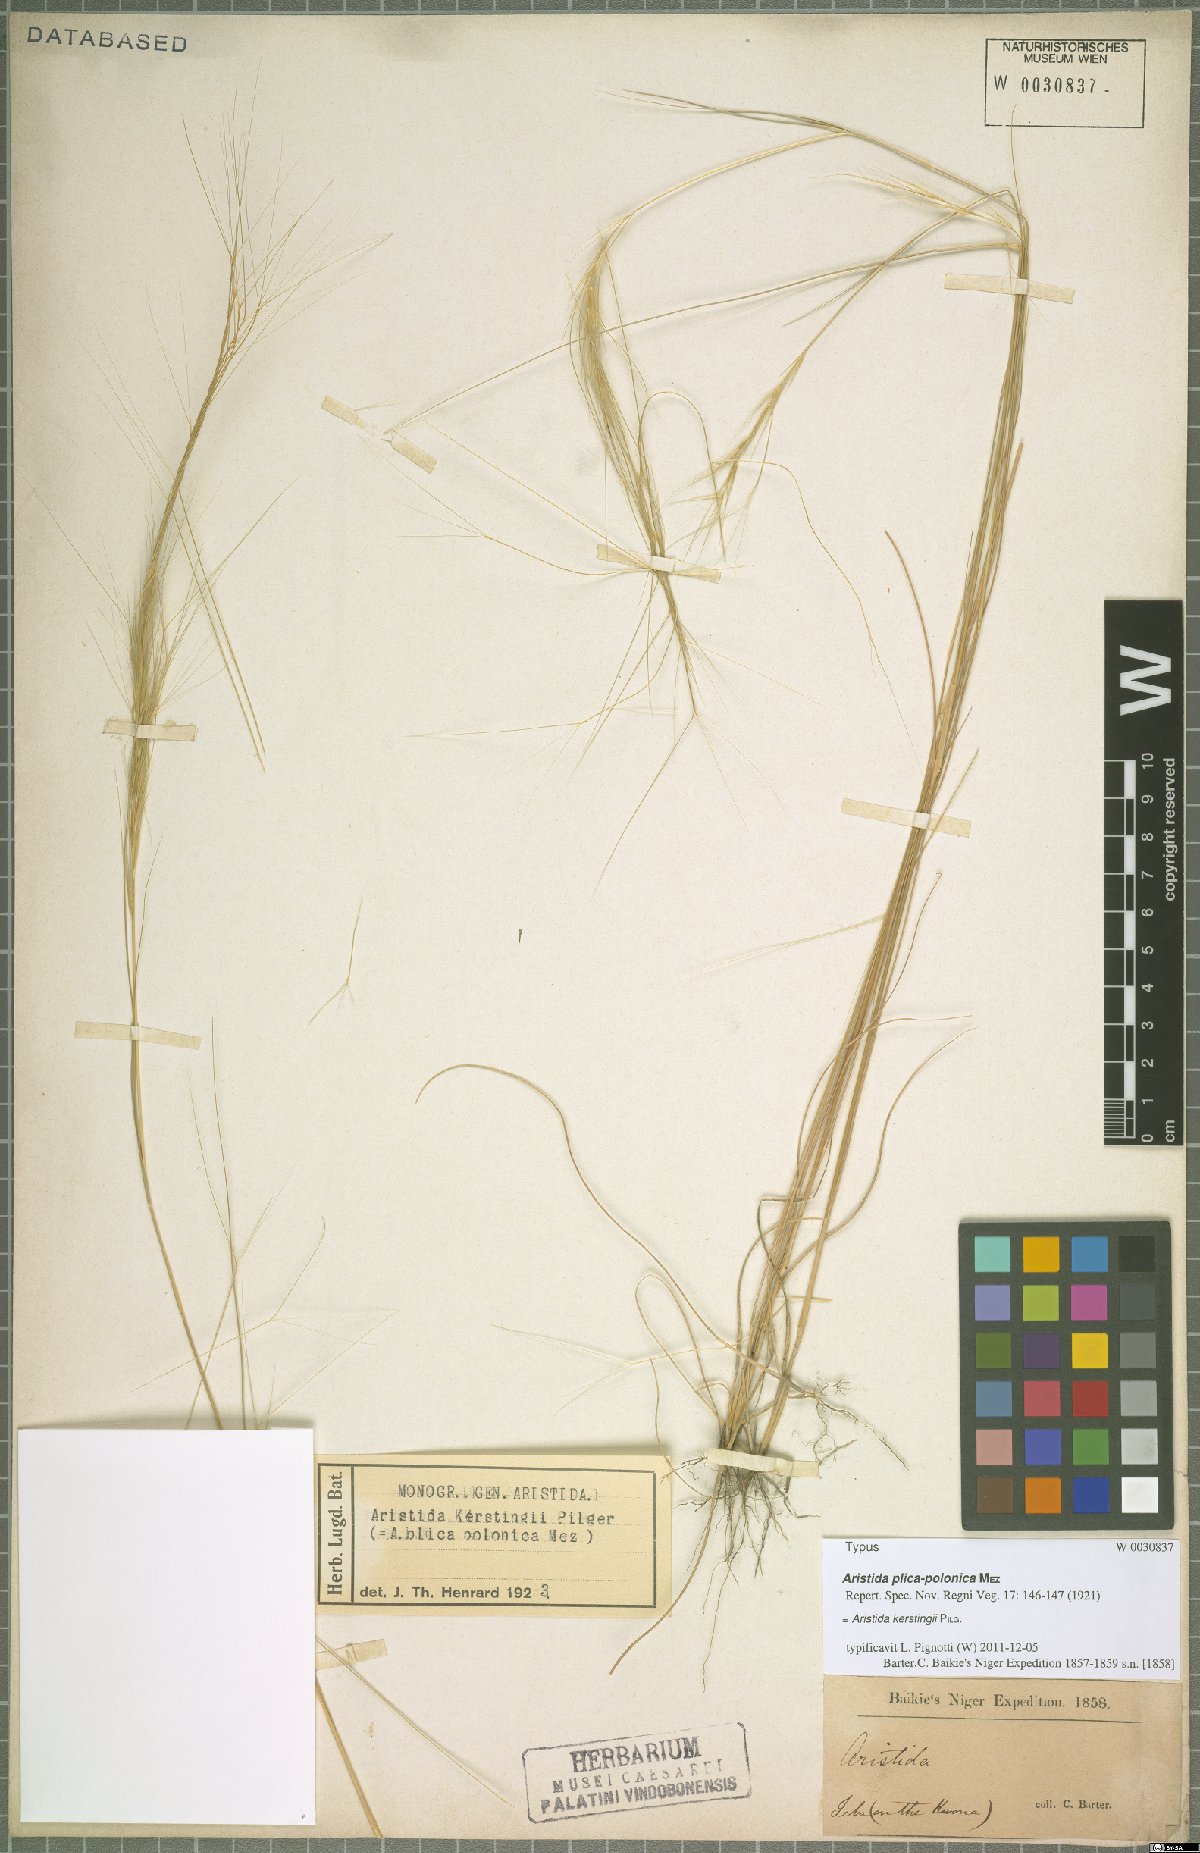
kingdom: Plantae
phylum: Tracheophyta
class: Liliopsida
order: Poales
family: Poaceae
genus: Aristida
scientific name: Aristida kerstingii
